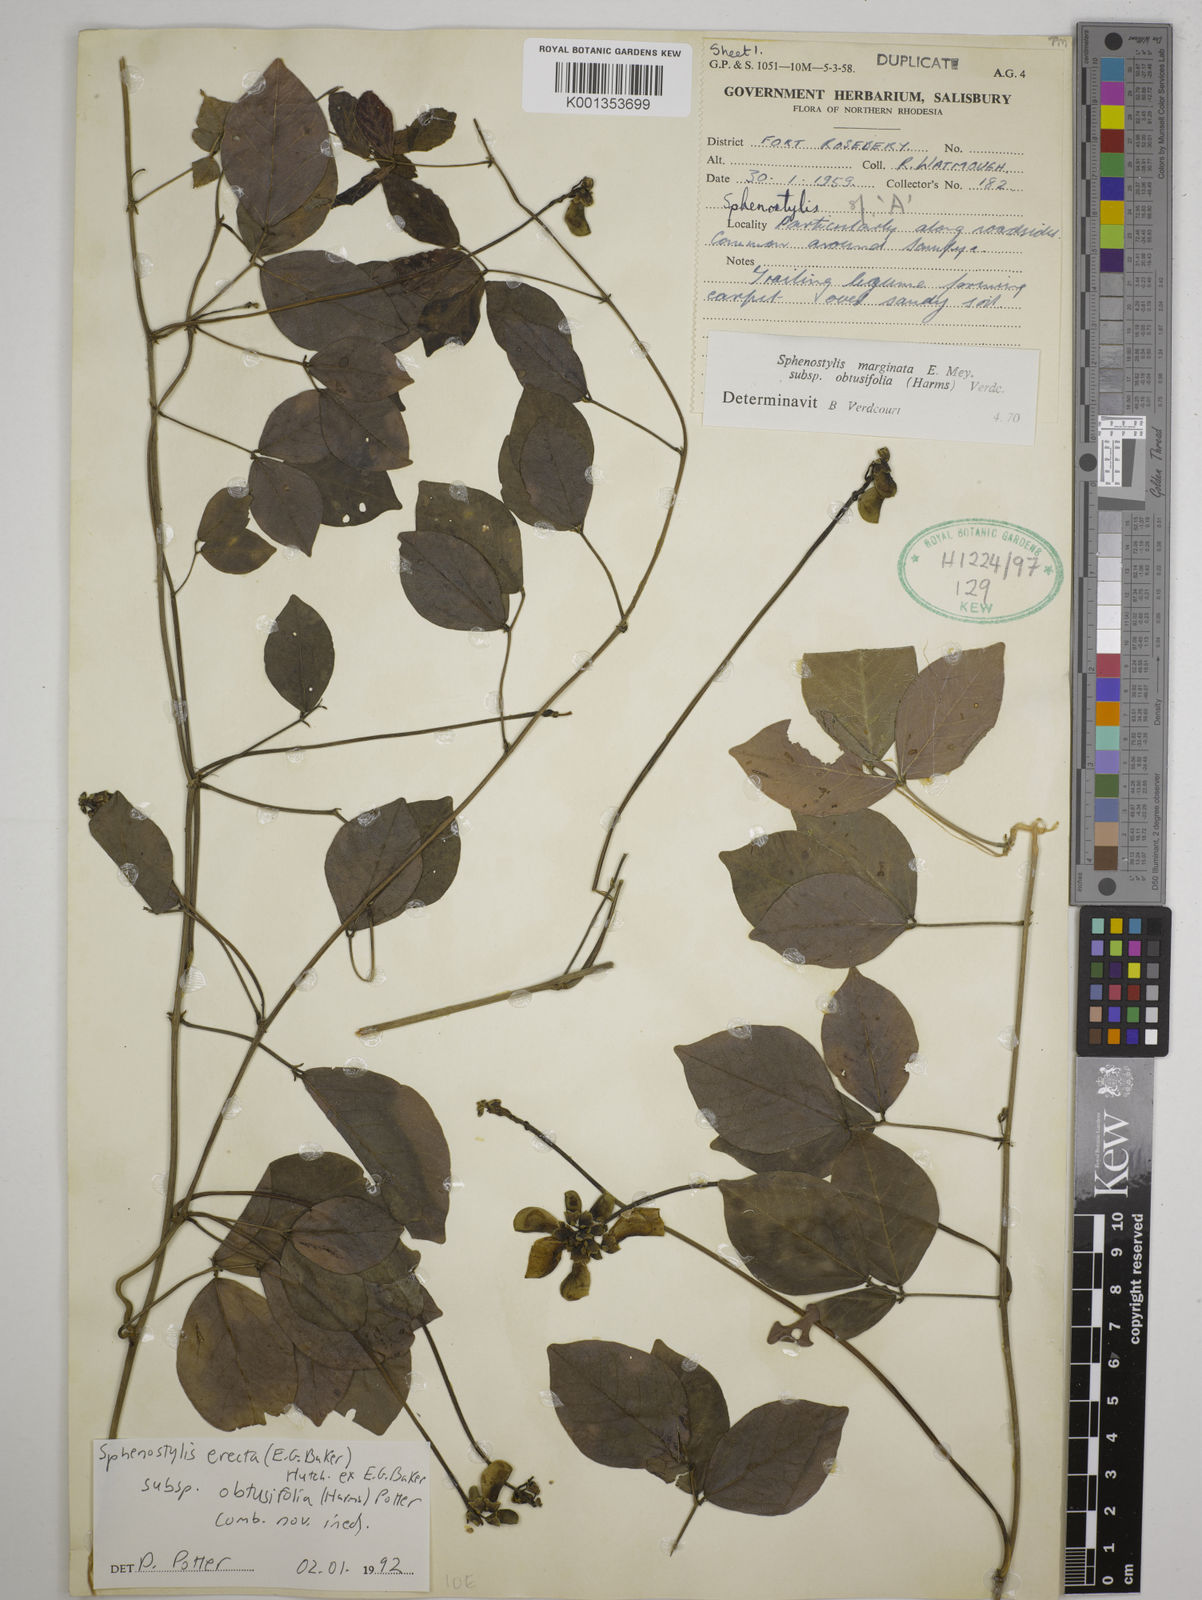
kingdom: Plantae
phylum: Tracheophyta
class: Magnoliopsida
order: Fabales
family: Fabaceae
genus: Sphenostylis
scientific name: Sphenostylis erecta
